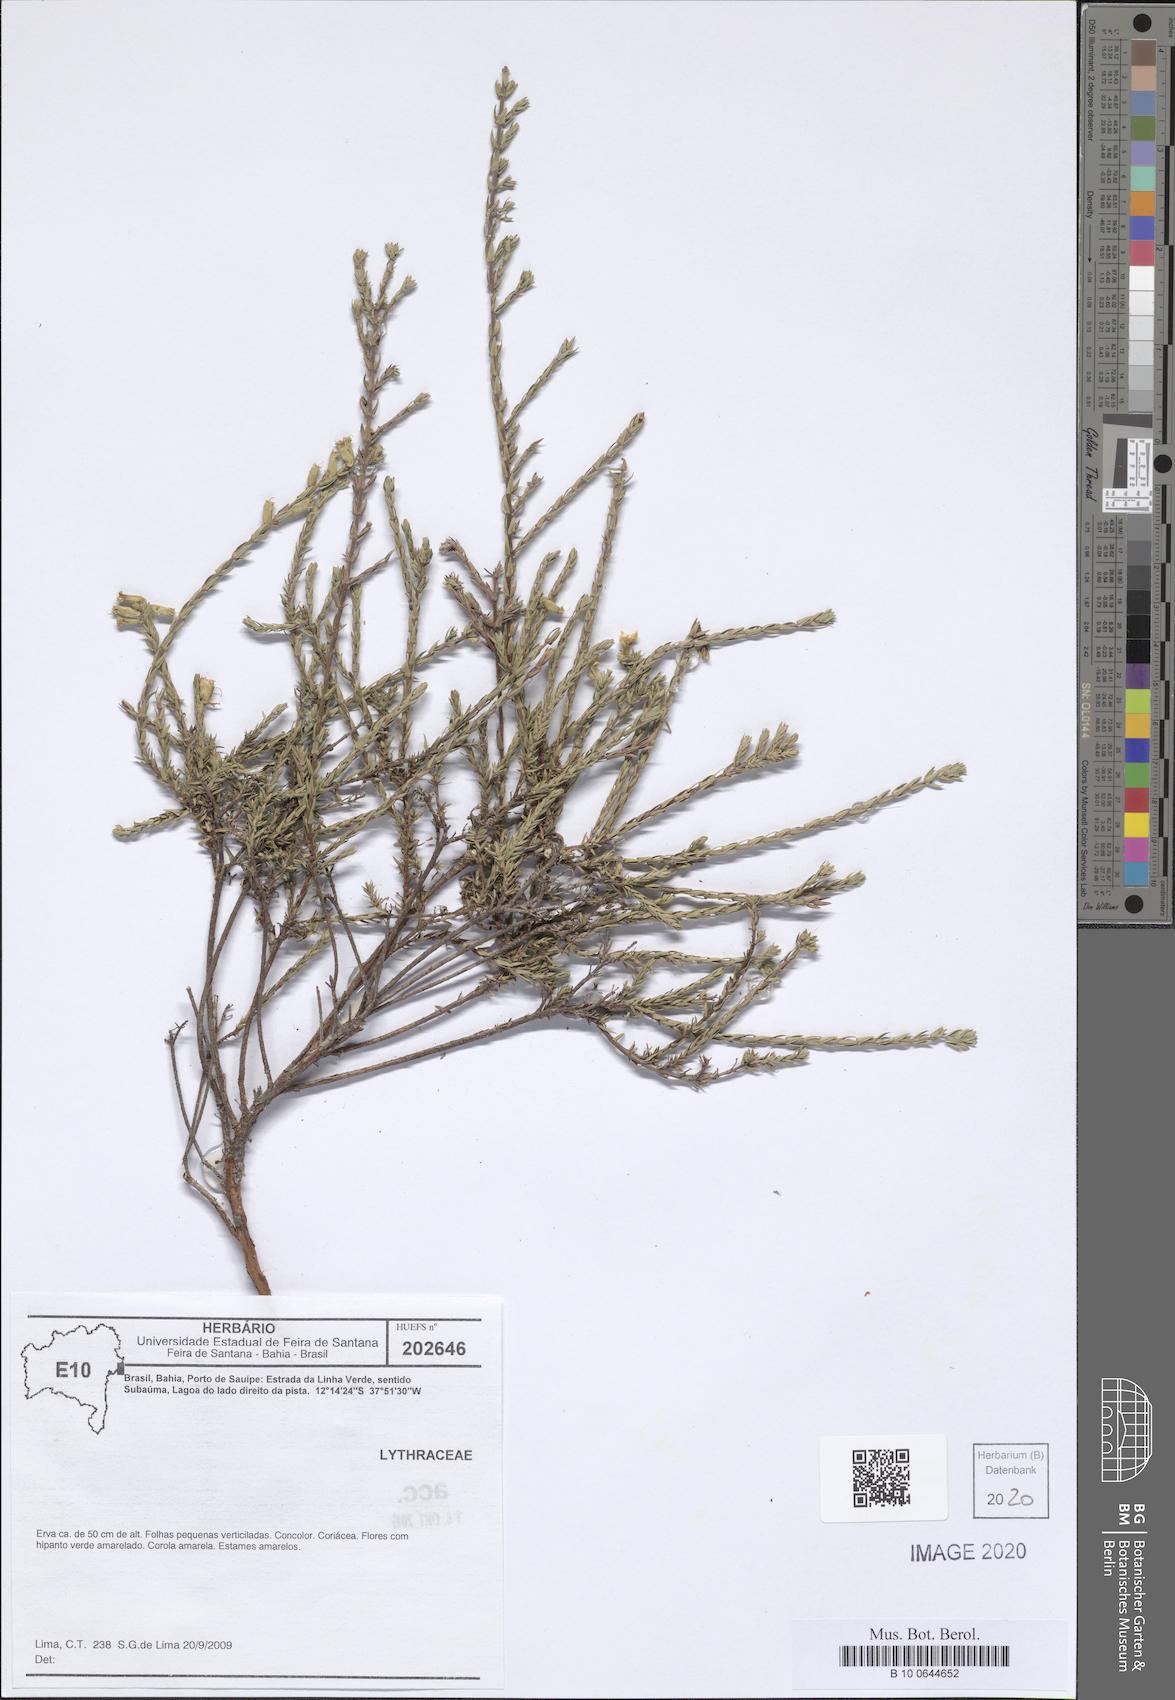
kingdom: Plantae
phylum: Tracheophyta
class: Magnoliopsida
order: Myrtales
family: Lythraceae
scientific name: Lythraceae
